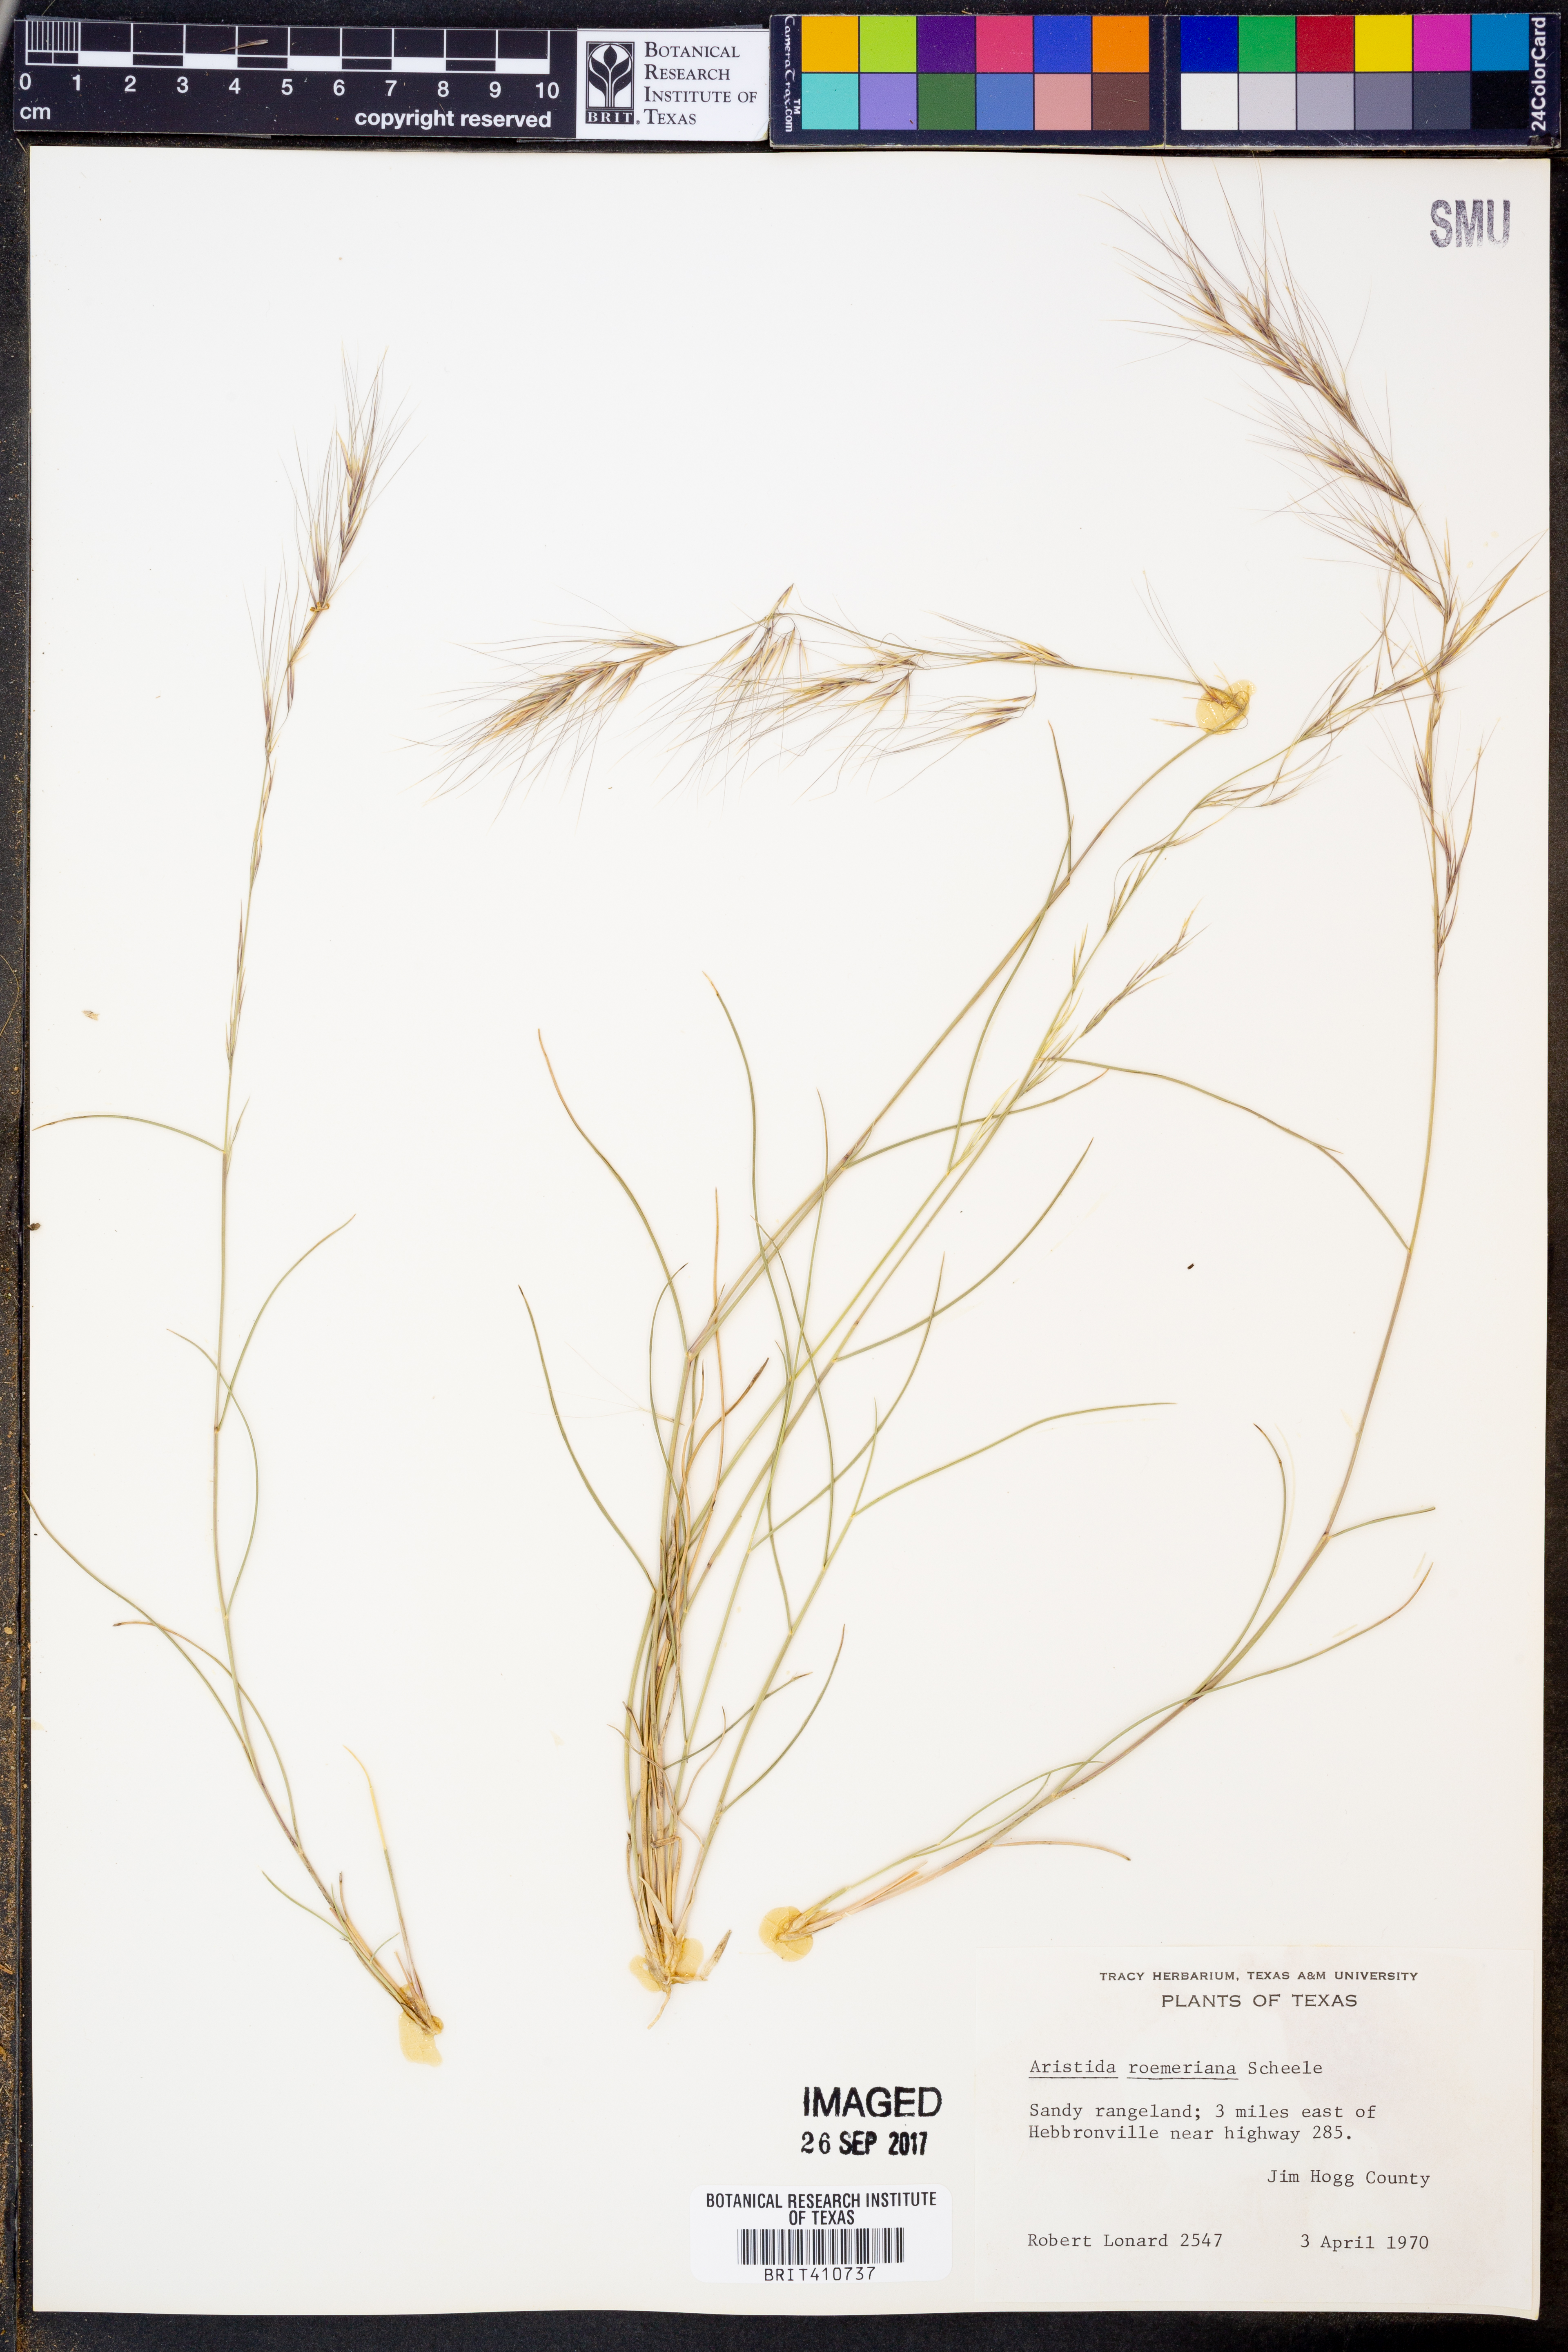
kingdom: Plantae
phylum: Tracheophyta
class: Liliopsida
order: Poales
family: Poaceae
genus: Aristida
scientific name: Aristida purpurea
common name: Purple threeawn
